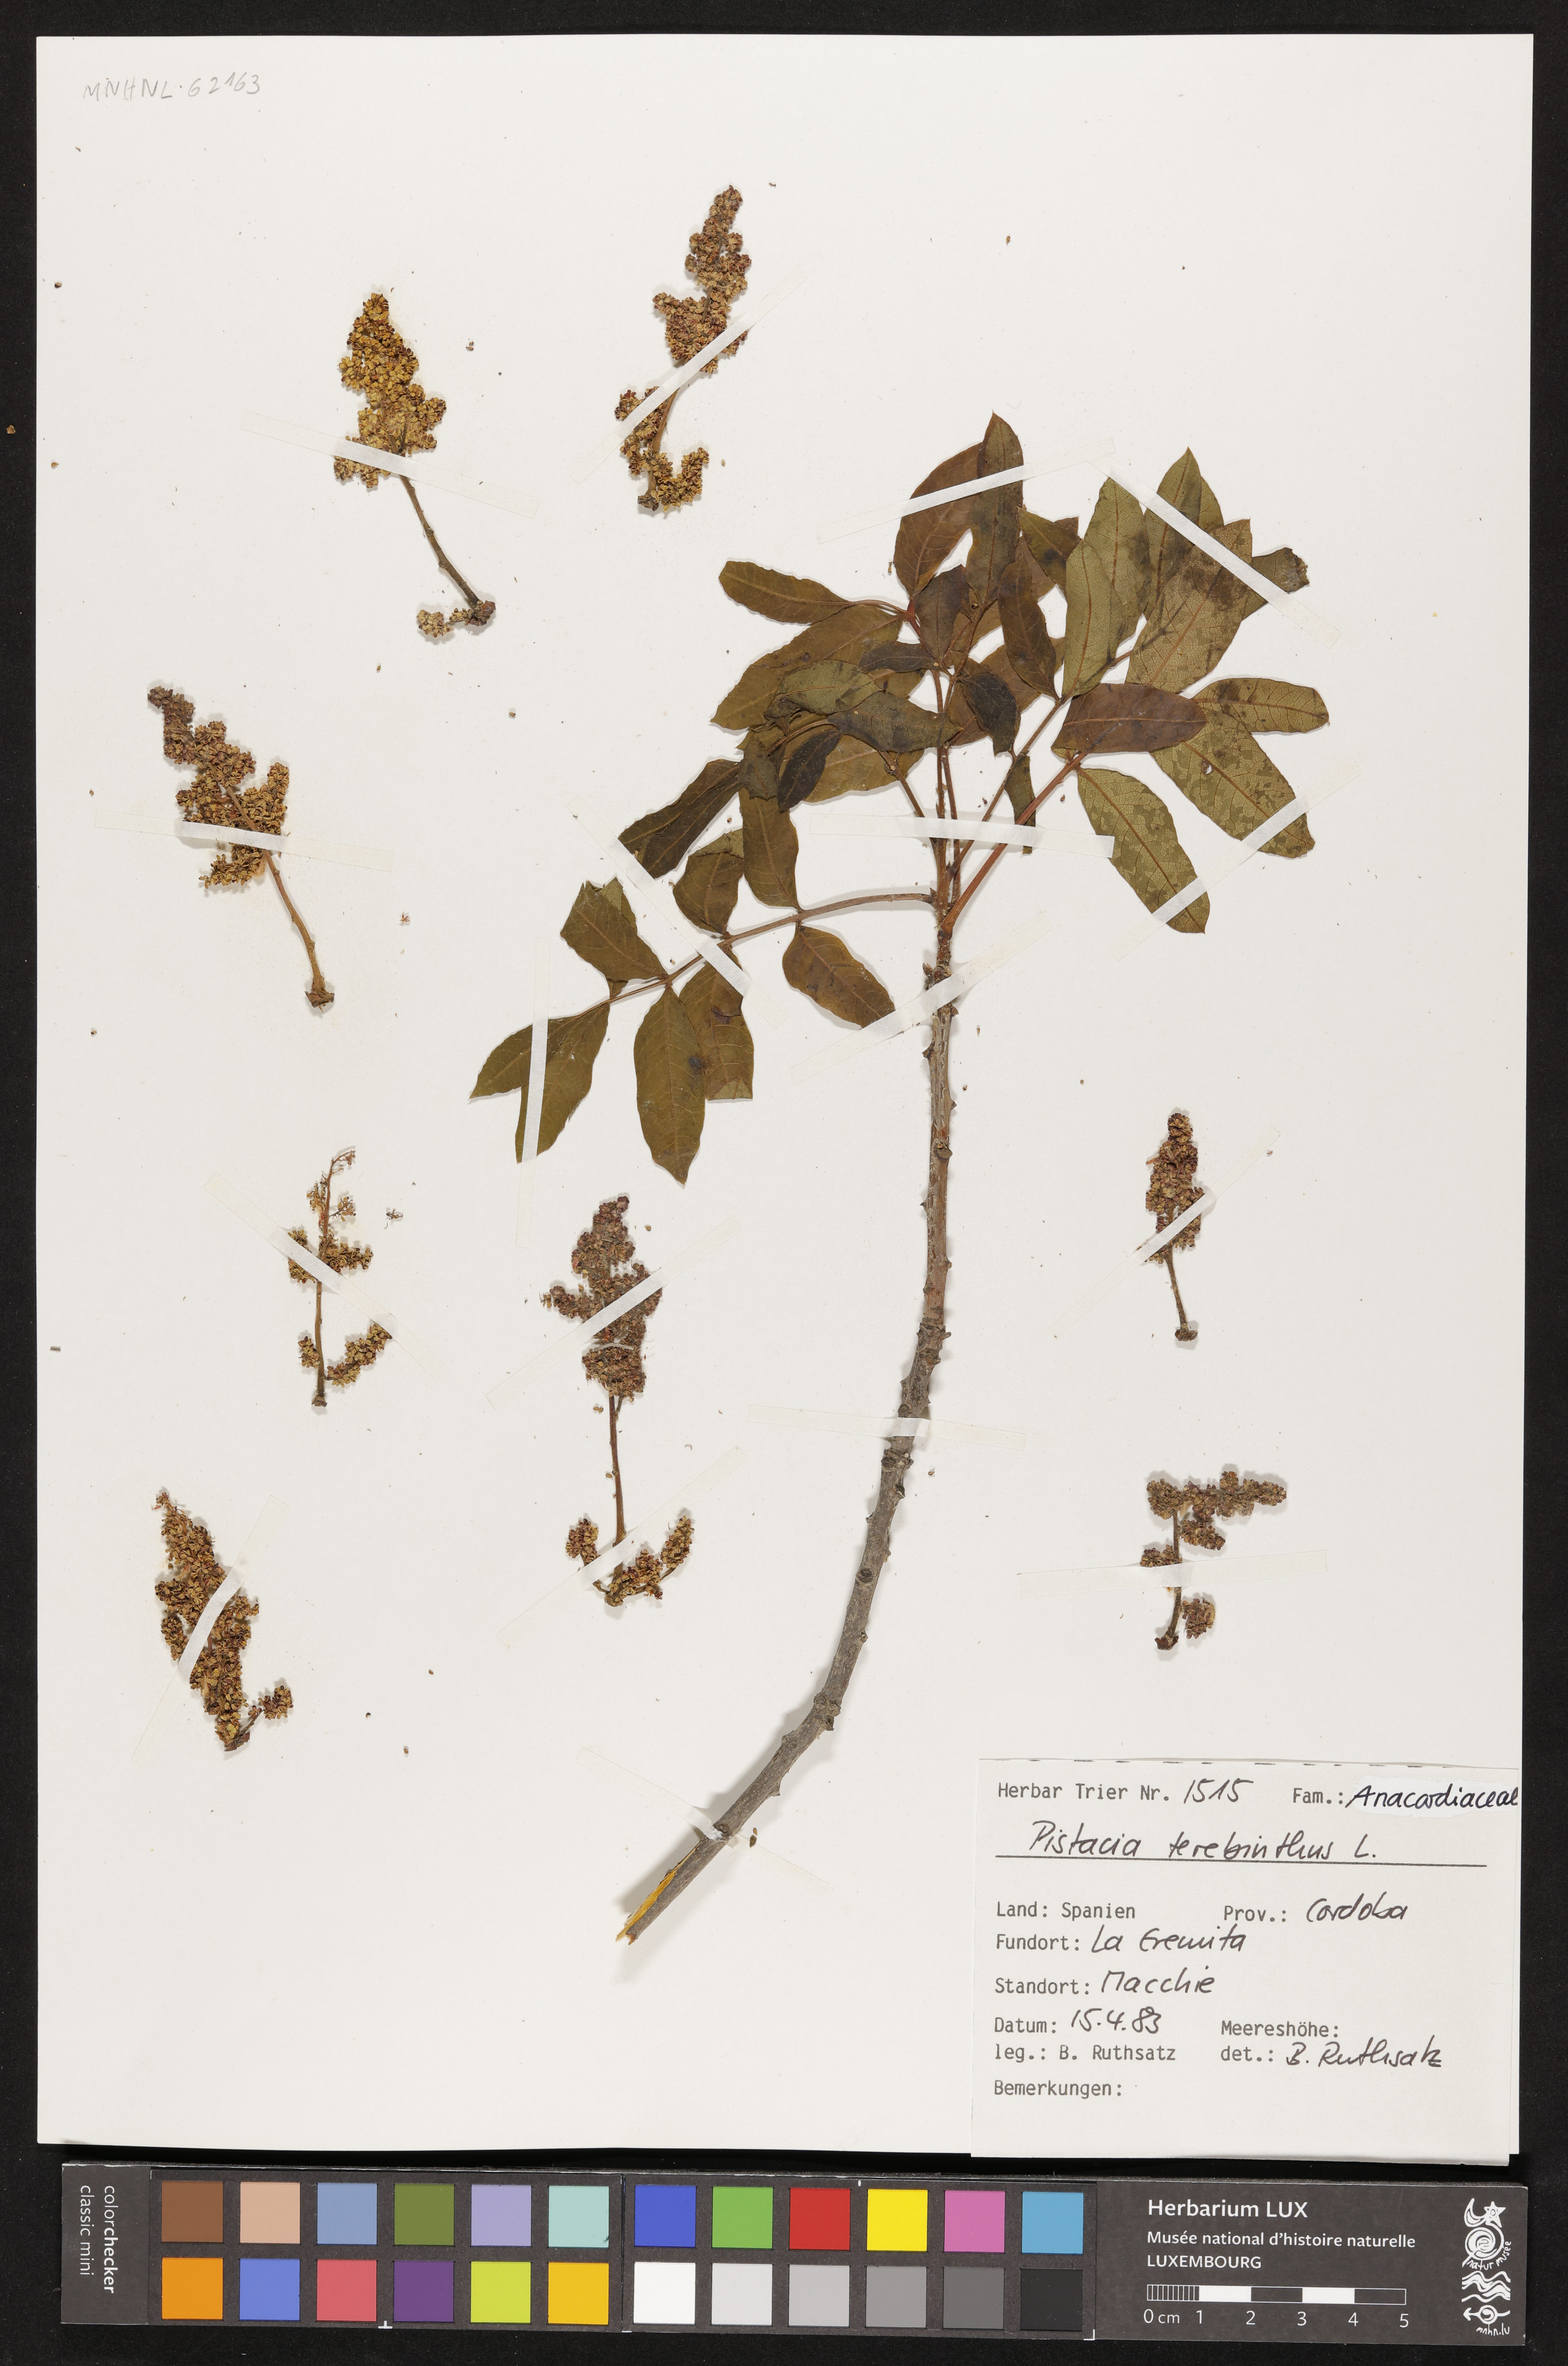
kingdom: Plantae
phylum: Tracheophyta
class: Magnoliopsida
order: Sapindales
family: Anacardiaceae
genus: Pistacia
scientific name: Pistacia terebinthus
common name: Terebinth
